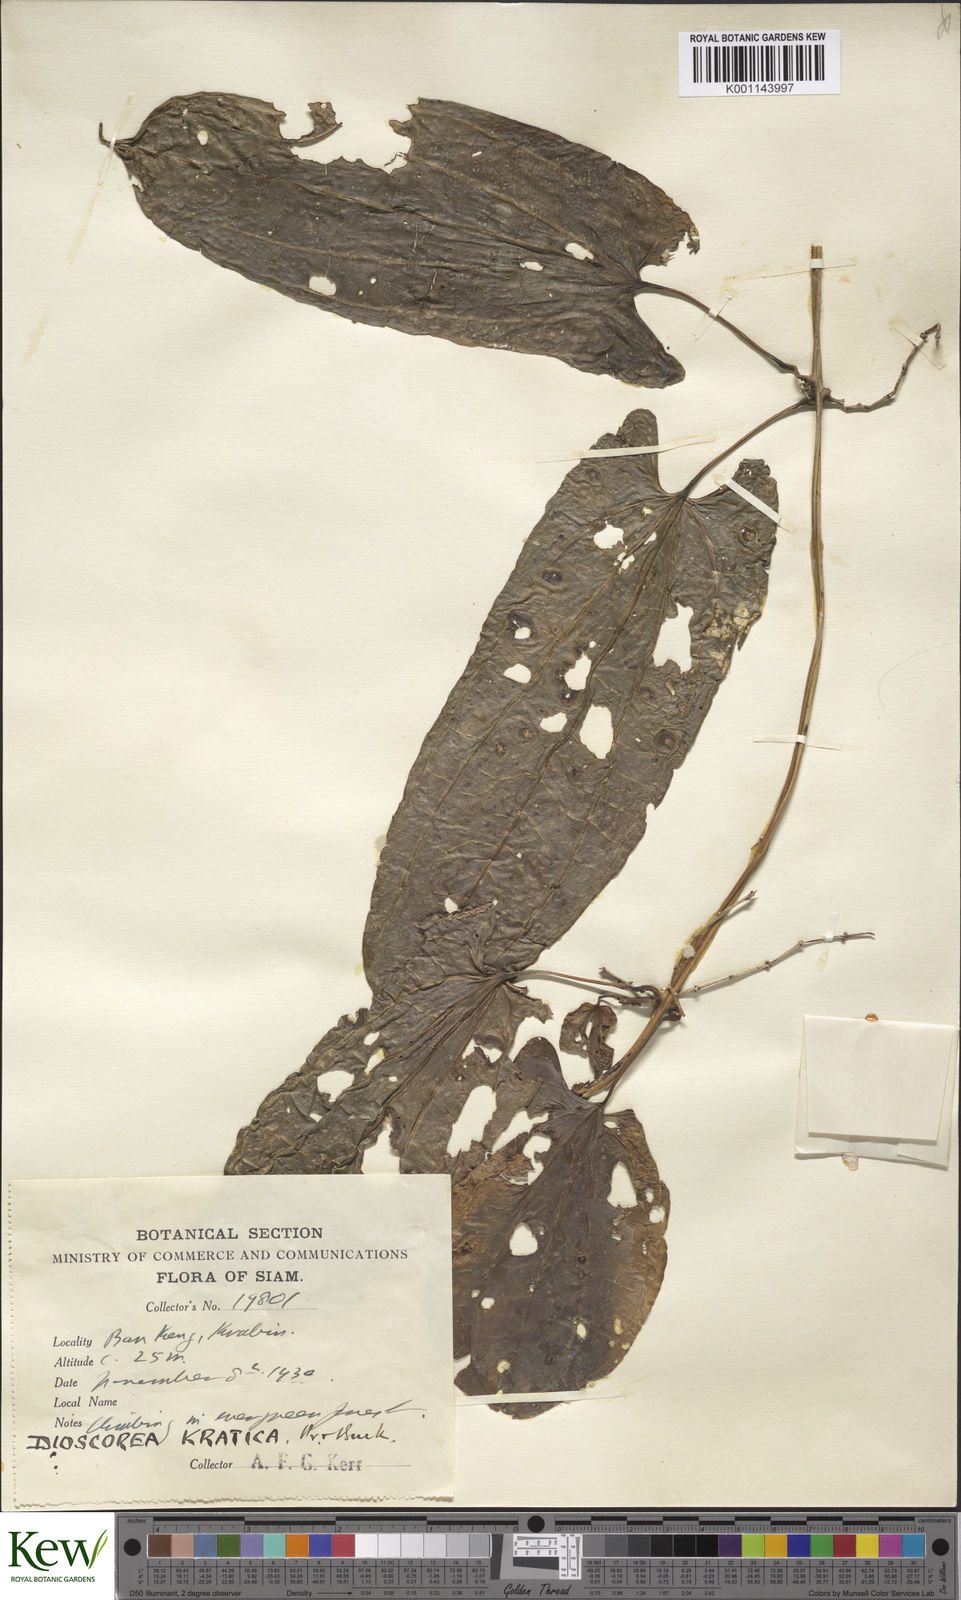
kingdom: Plantae
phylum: Tracheophyta
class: Liliopsida
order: Dioscoreales
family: Dioscoreaceae
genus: Dioscorea
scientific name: Dioscorea kratica
